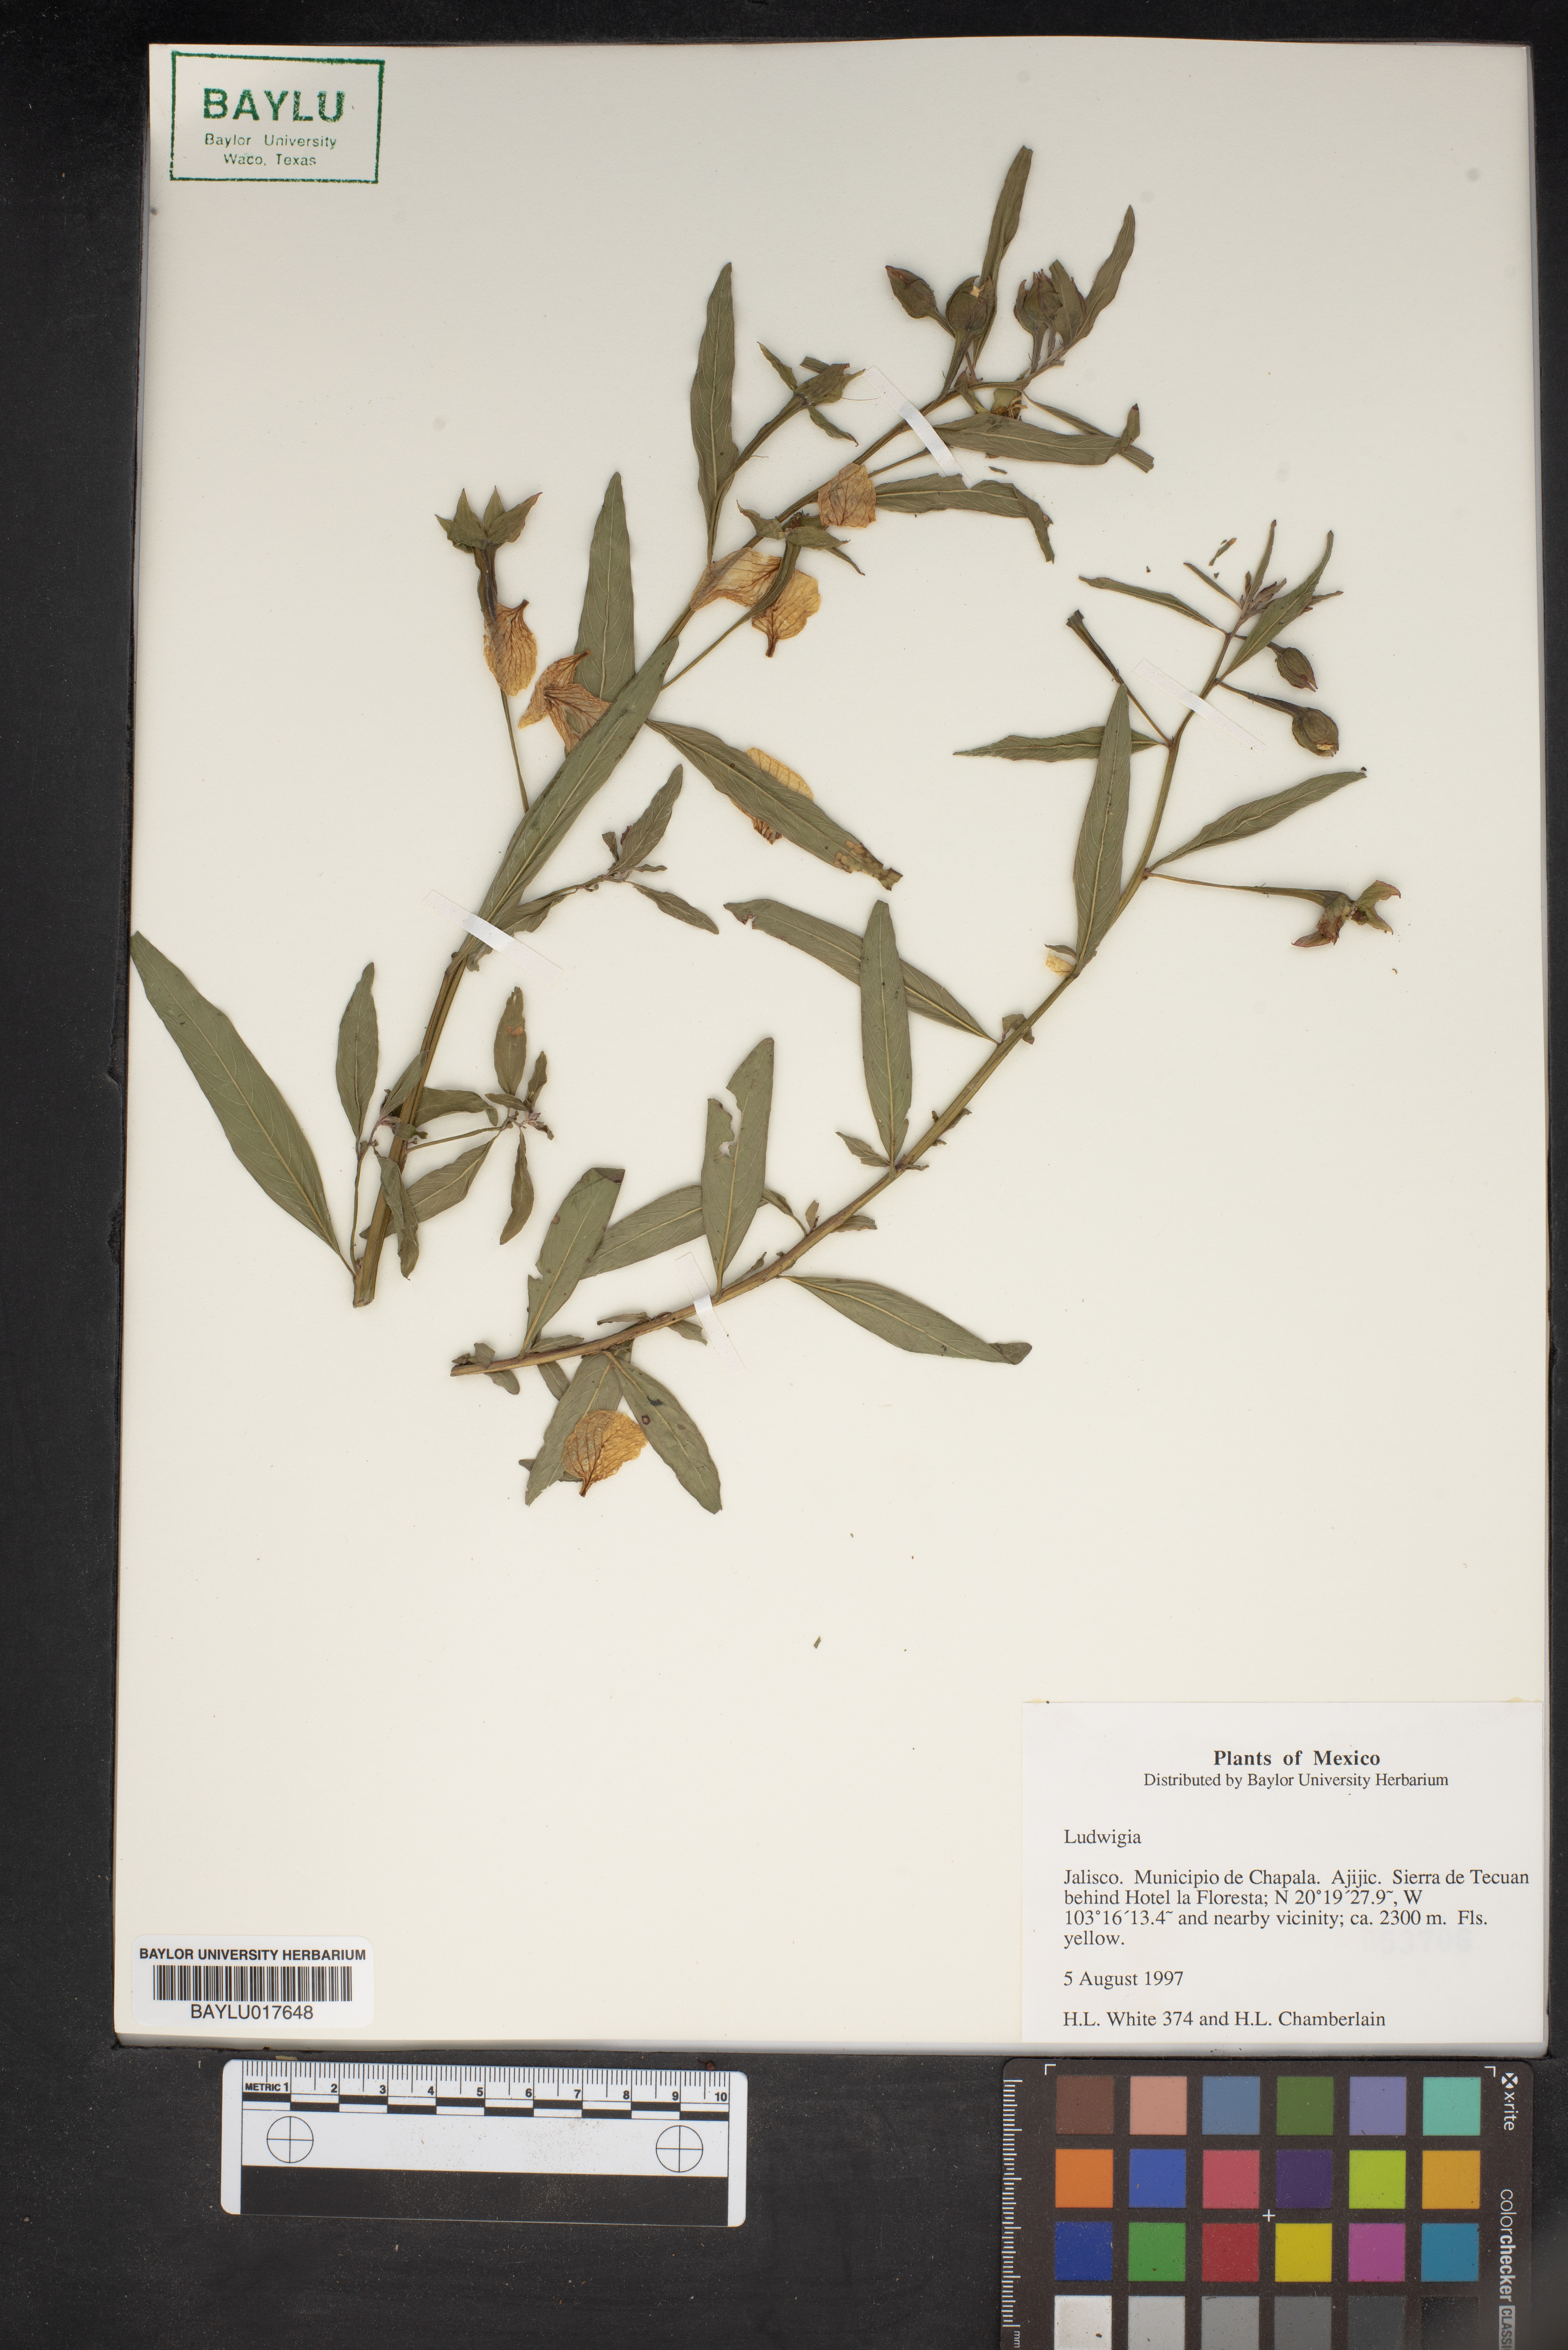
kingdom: Plantae
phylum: Tracheophyta
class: Magnoliopsida
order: Myrtales
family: Onagraceae
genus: Ludwigia
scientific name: Ludwigia
